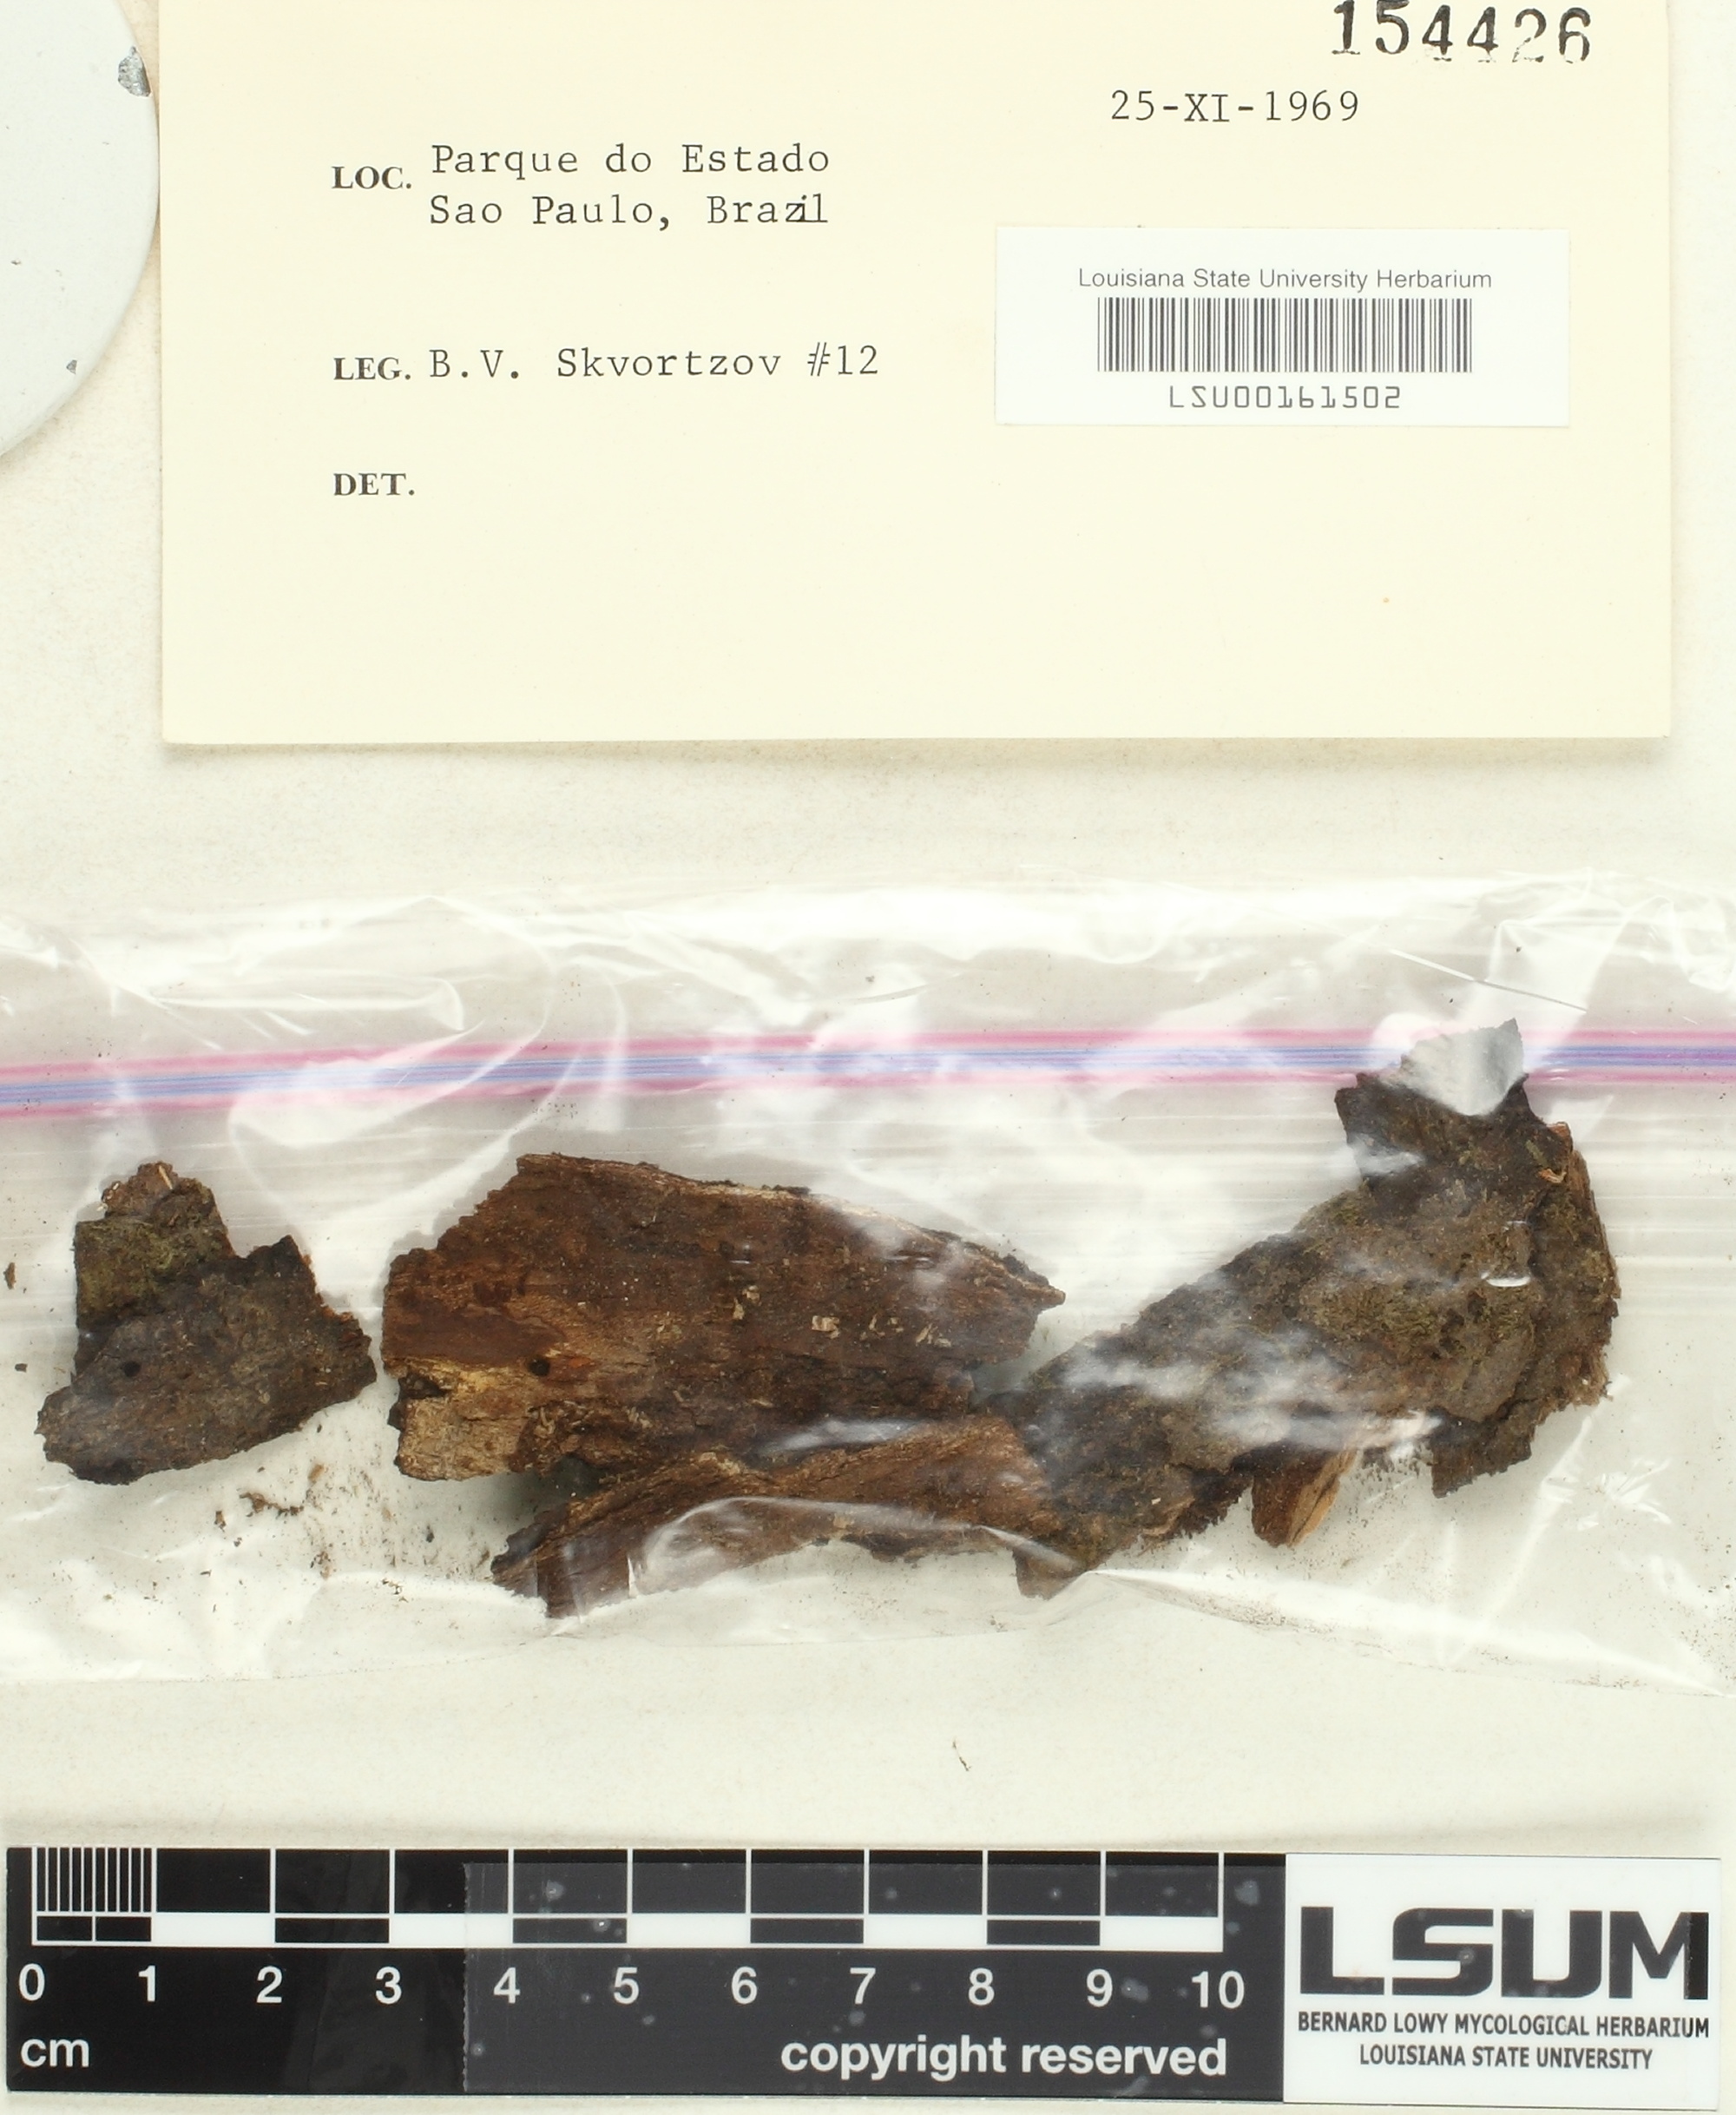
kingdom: Fungi
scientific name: Fungi
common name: Fungi
